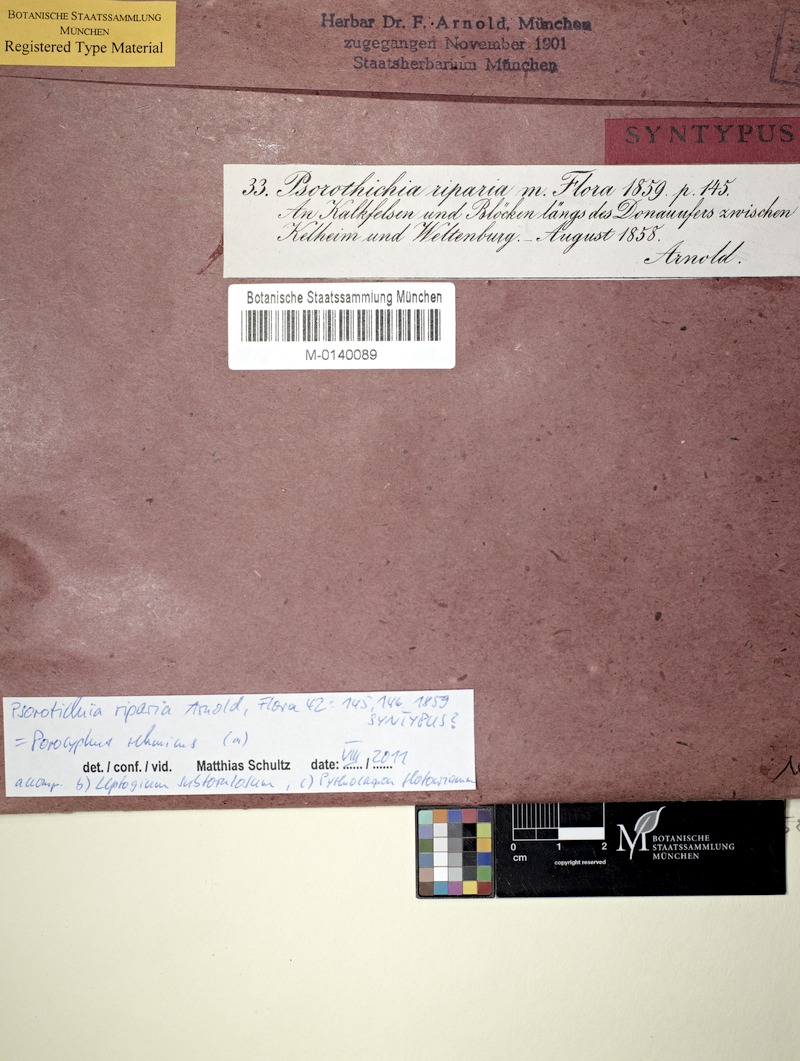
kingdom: Fungi
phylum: Ascomycota
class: Lichinomycetes
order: Lichinales
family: Lichinaceae
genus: Pyrenocarpon
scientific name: Pyrenocarpon thelostomum
